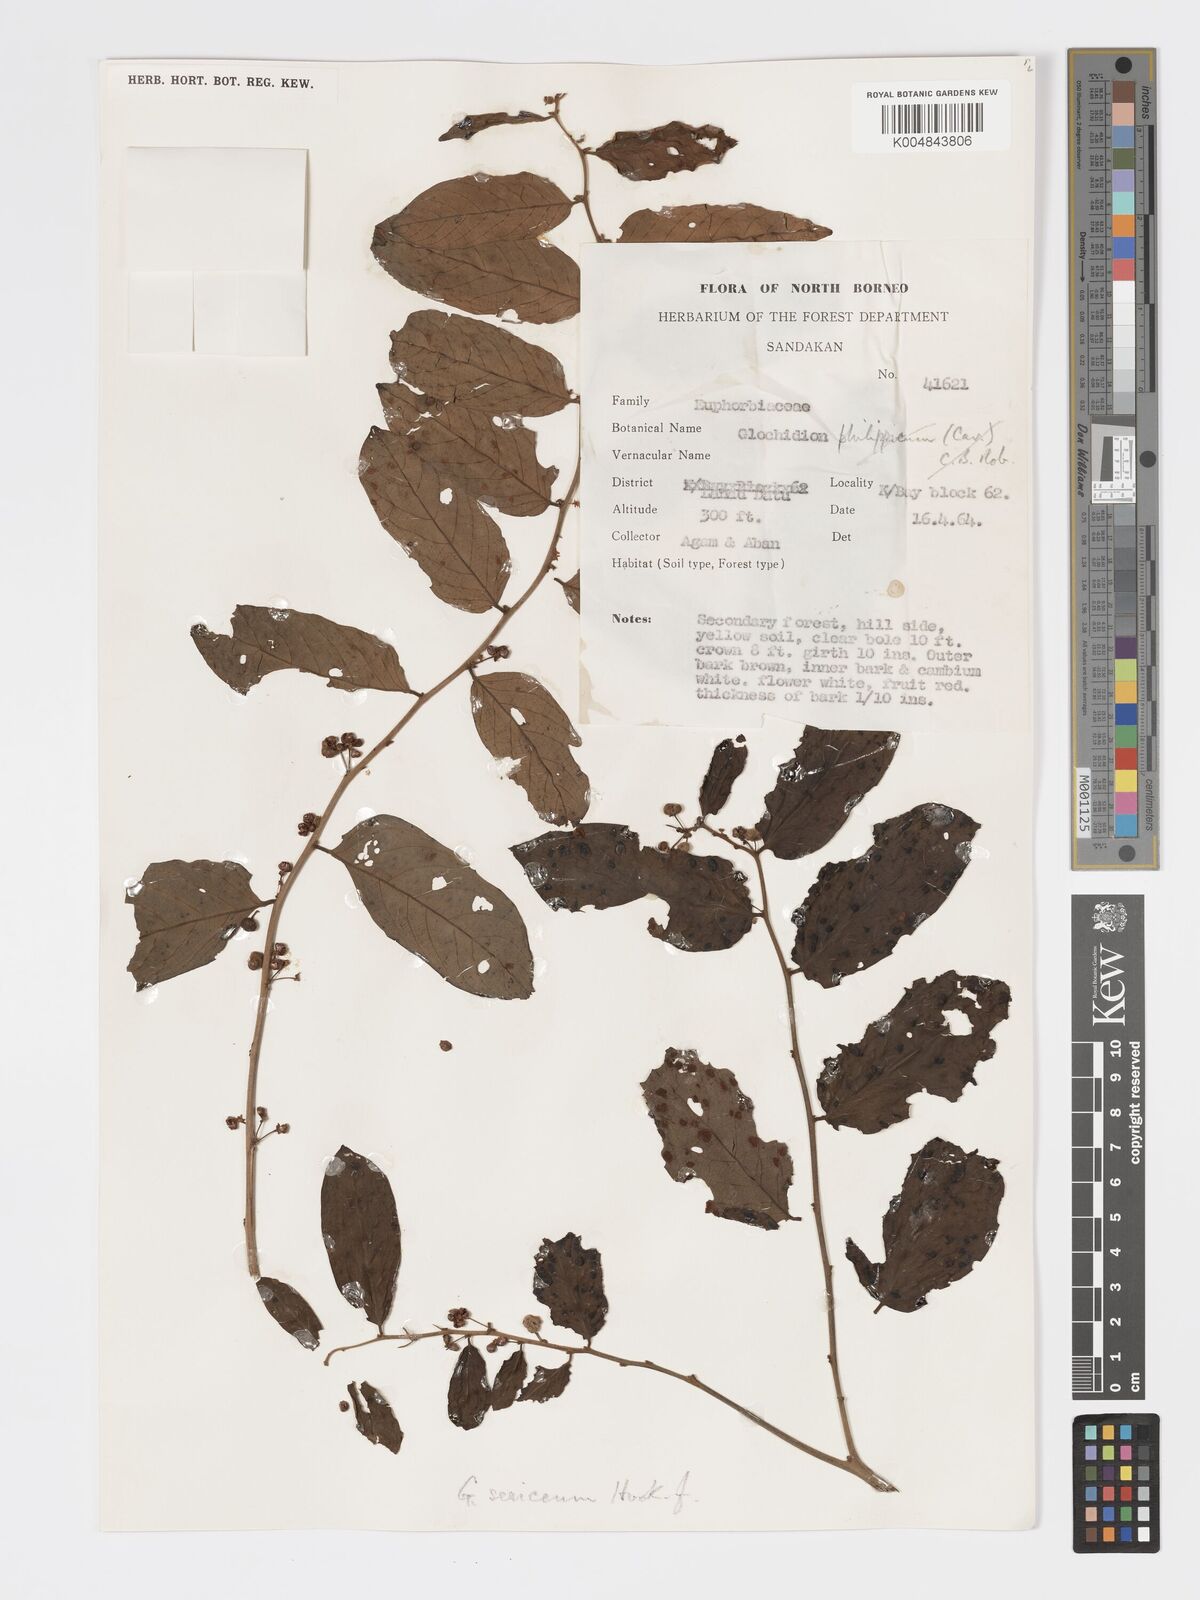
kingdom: Plantae
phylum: Tracheophyta
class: Magnoliopsida
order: Malpighiales
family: Phyllanthaceae
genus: Glochidion
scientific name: Glochidion sericeum
